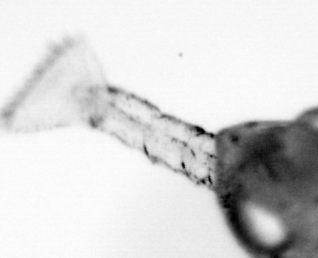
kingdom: Animalia
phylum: Arthropoda
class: Copepoda
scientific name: Copepoda
